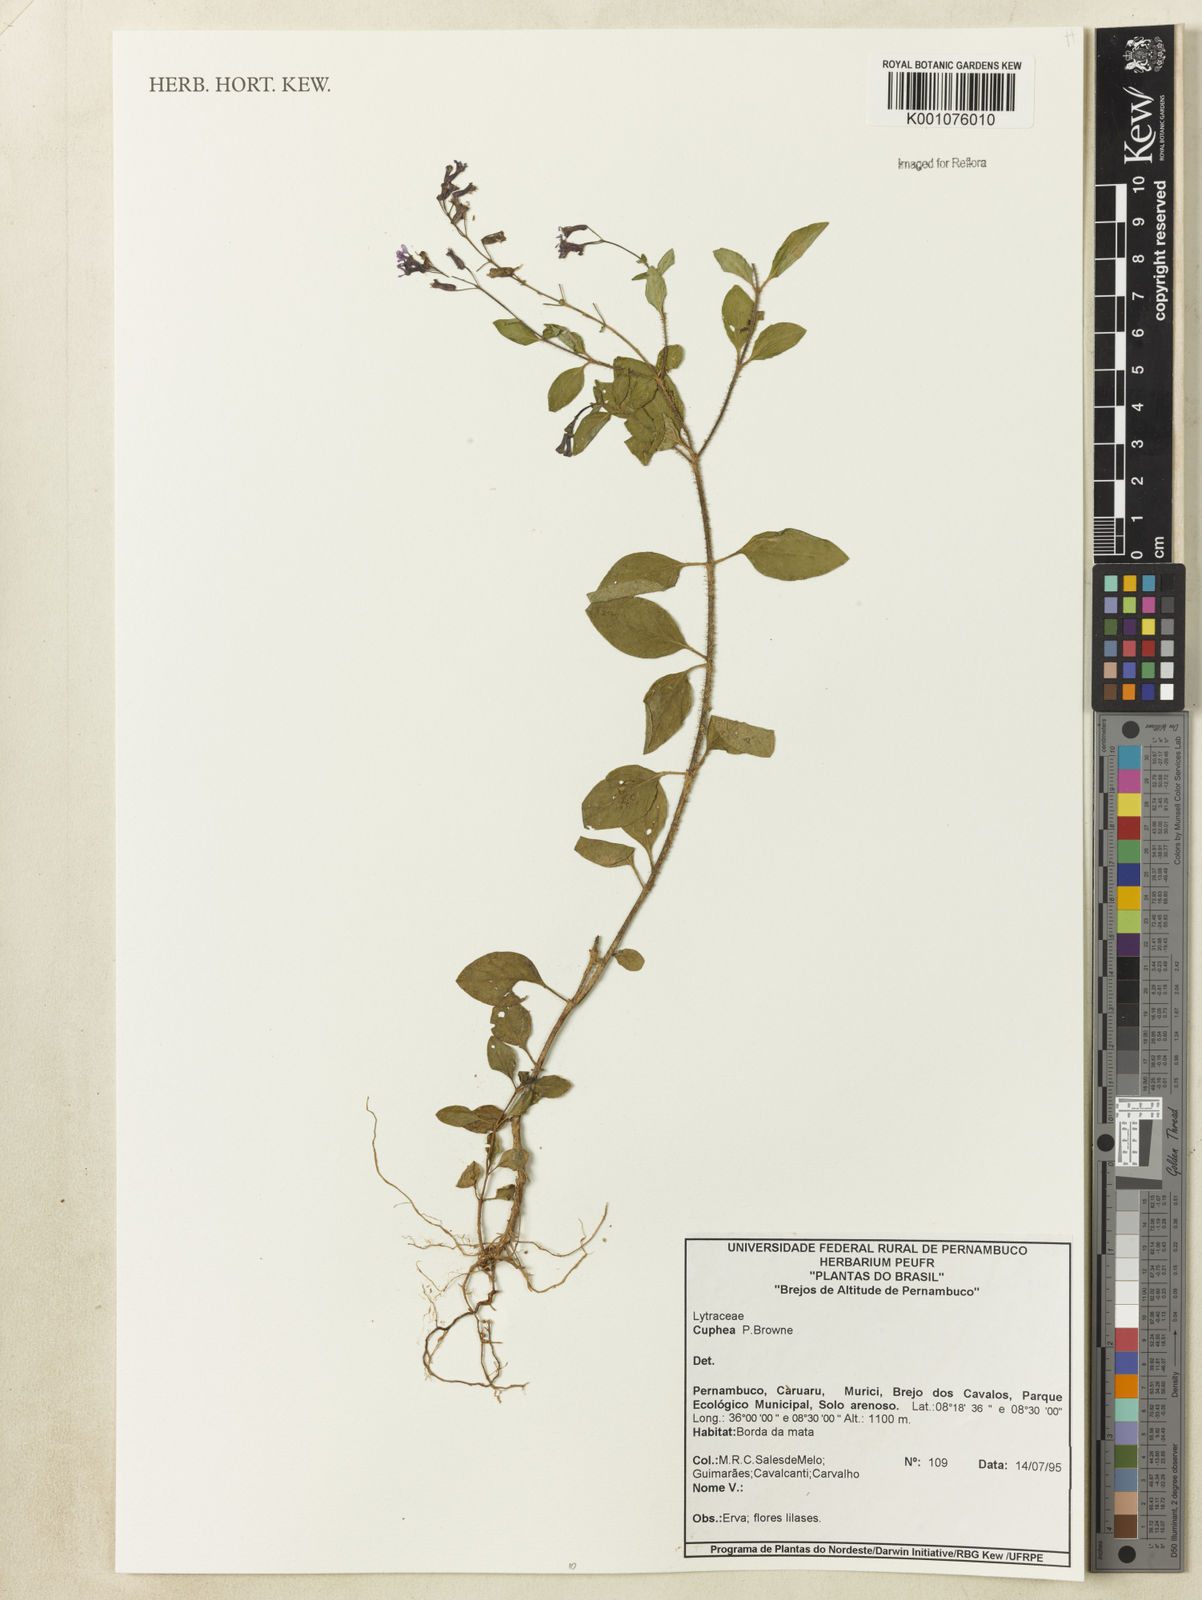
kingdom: Plantae
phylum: Tracheophyta
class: Magnoliopsida
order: Myrtales
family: Lythraceae
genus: Cuphea
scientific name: Cuphea
